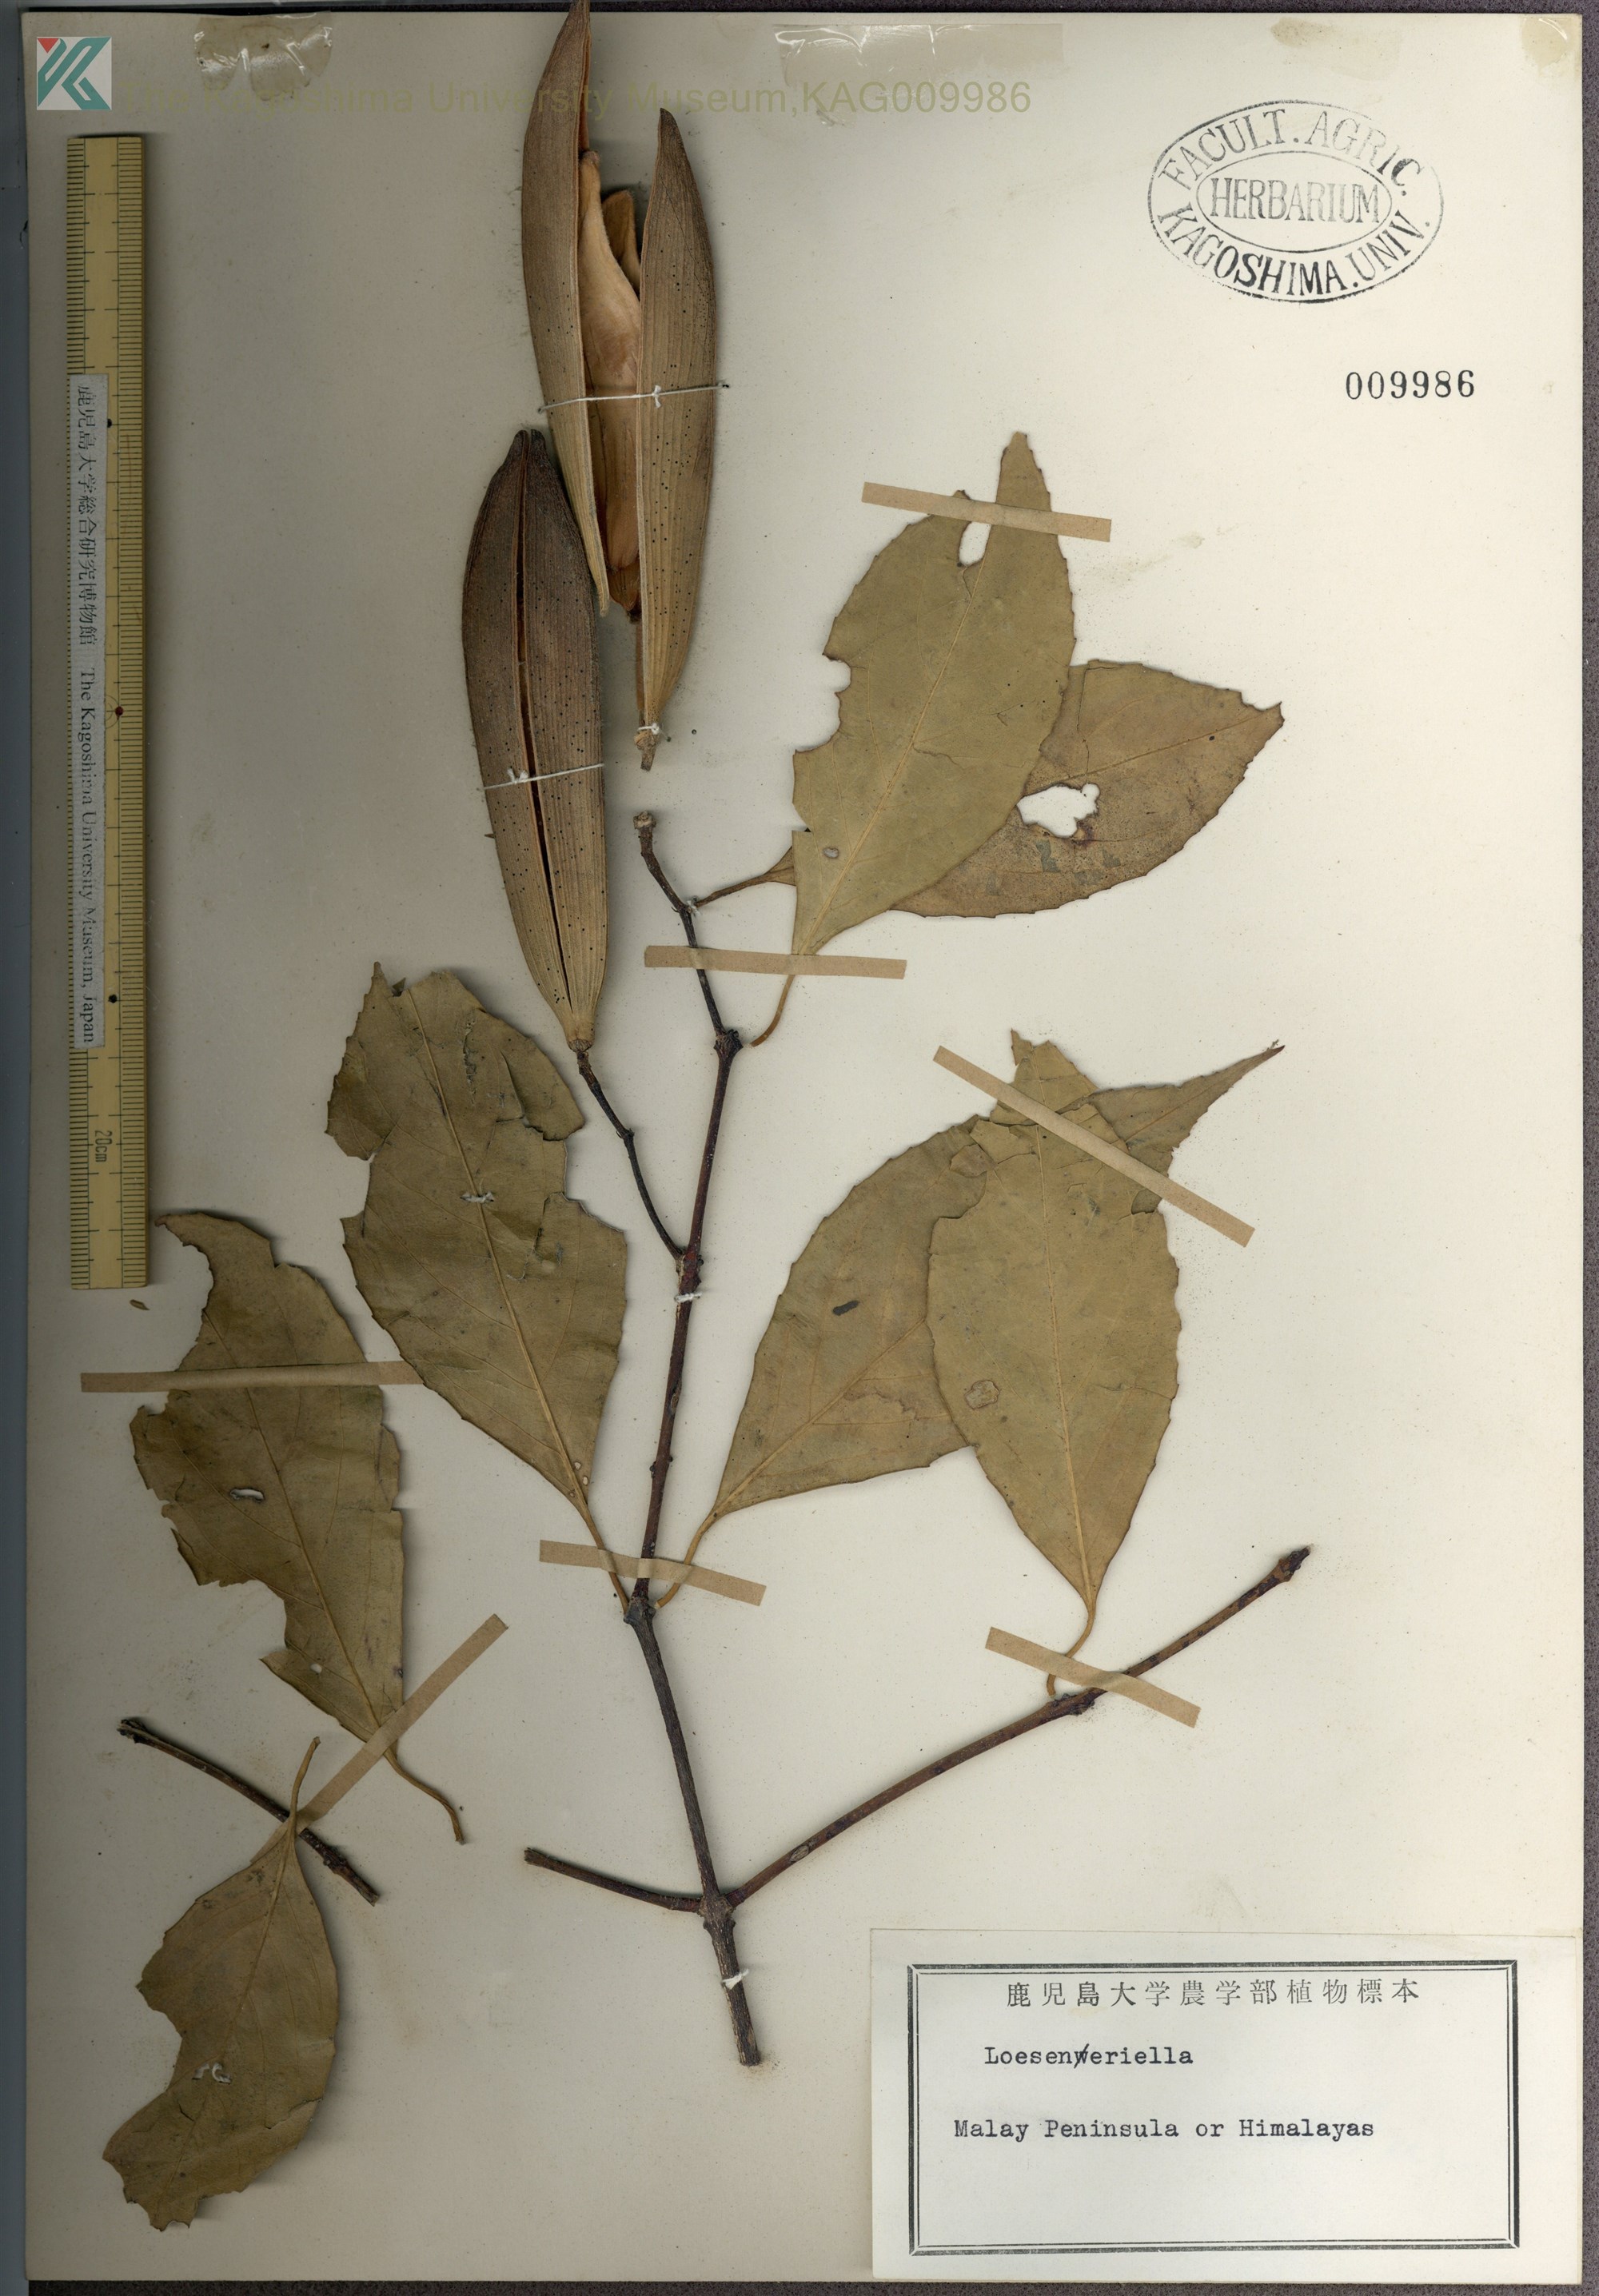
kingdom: Plantae
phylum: Tracheophyta
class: Magnoliopsida
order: Celastrales
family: Celastraceae
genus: Loeseneriella
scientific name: Loeseneriella
